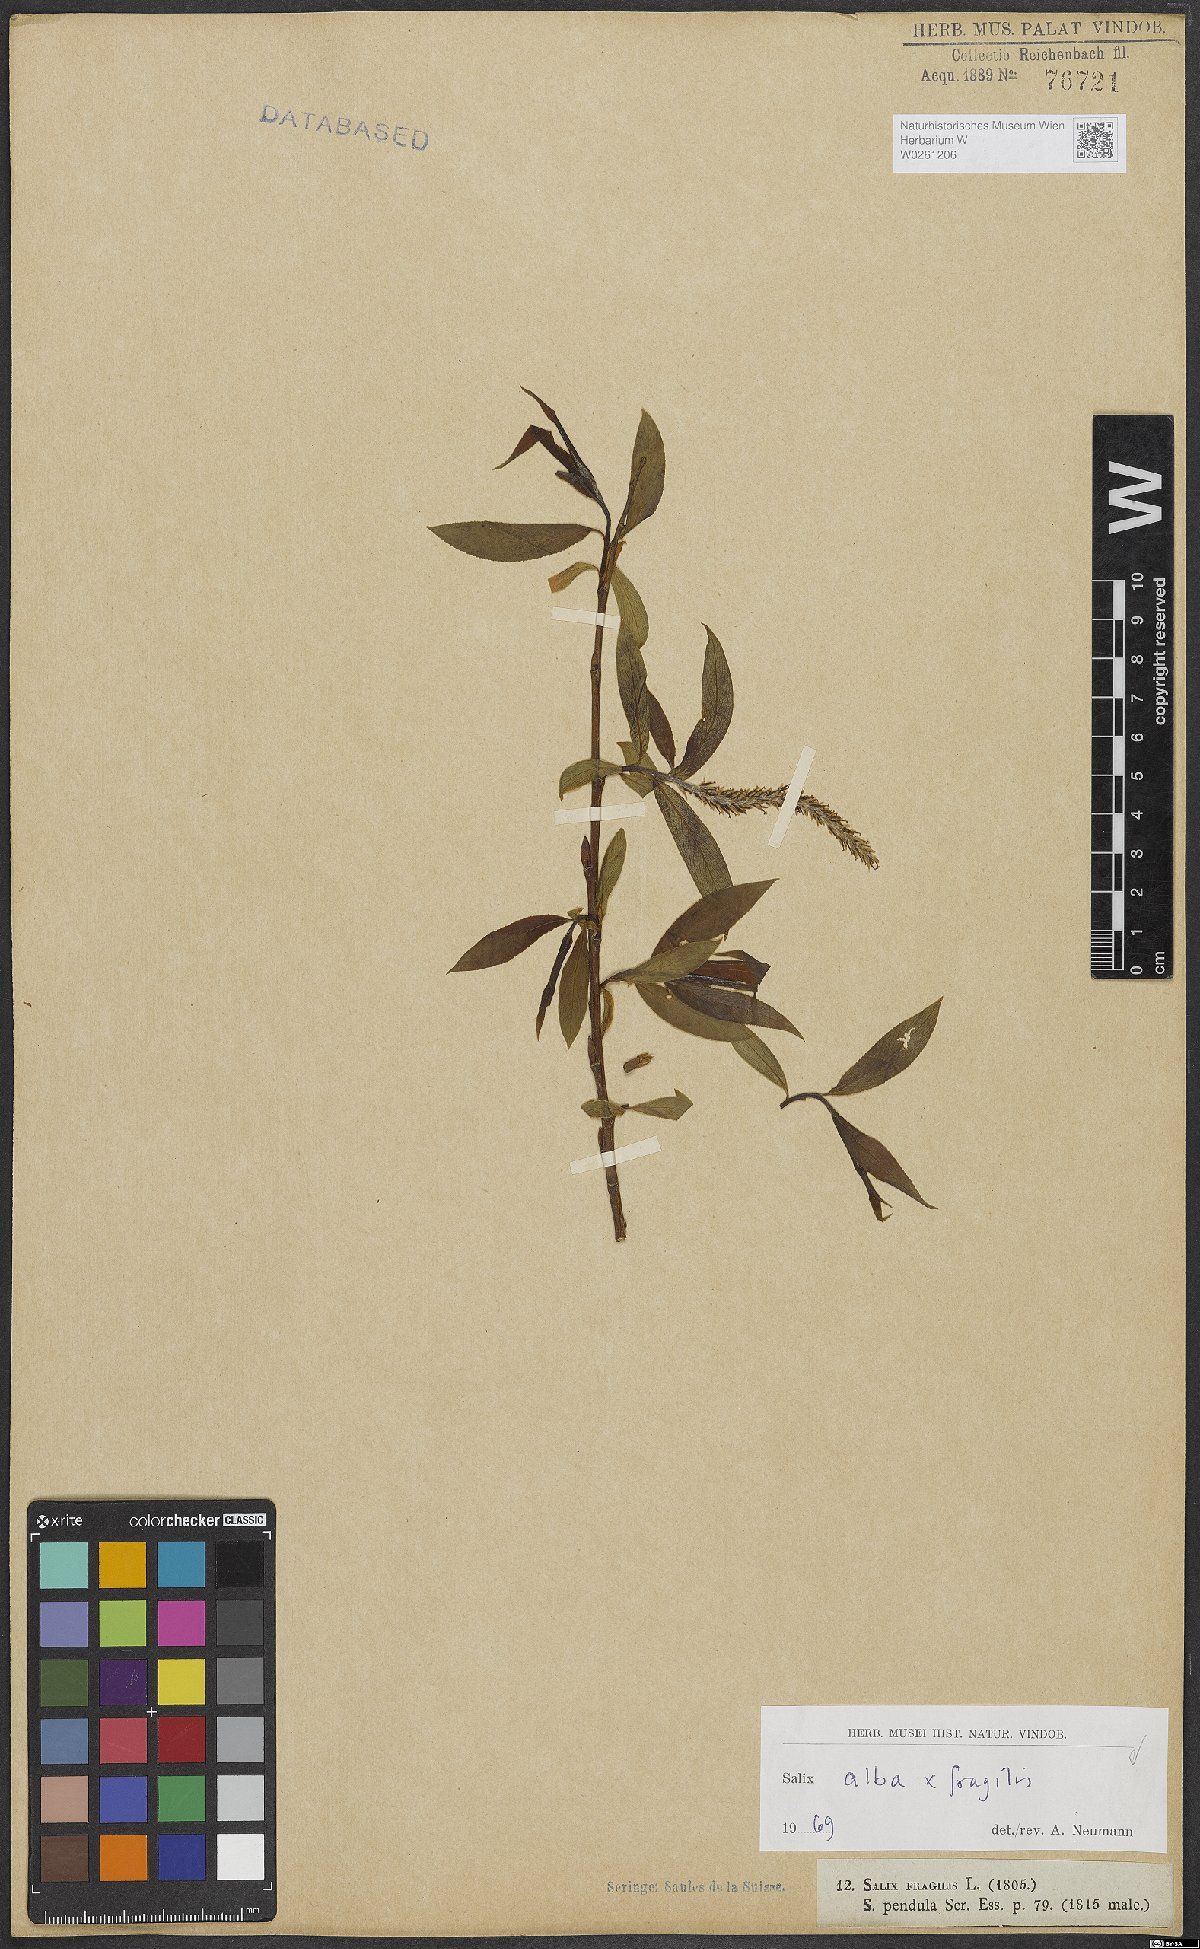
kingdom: Plantae
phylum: Tracheophyta
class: Magnoliopsida
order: Malpighiales
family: Salicaceae
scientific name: Salicaceae
